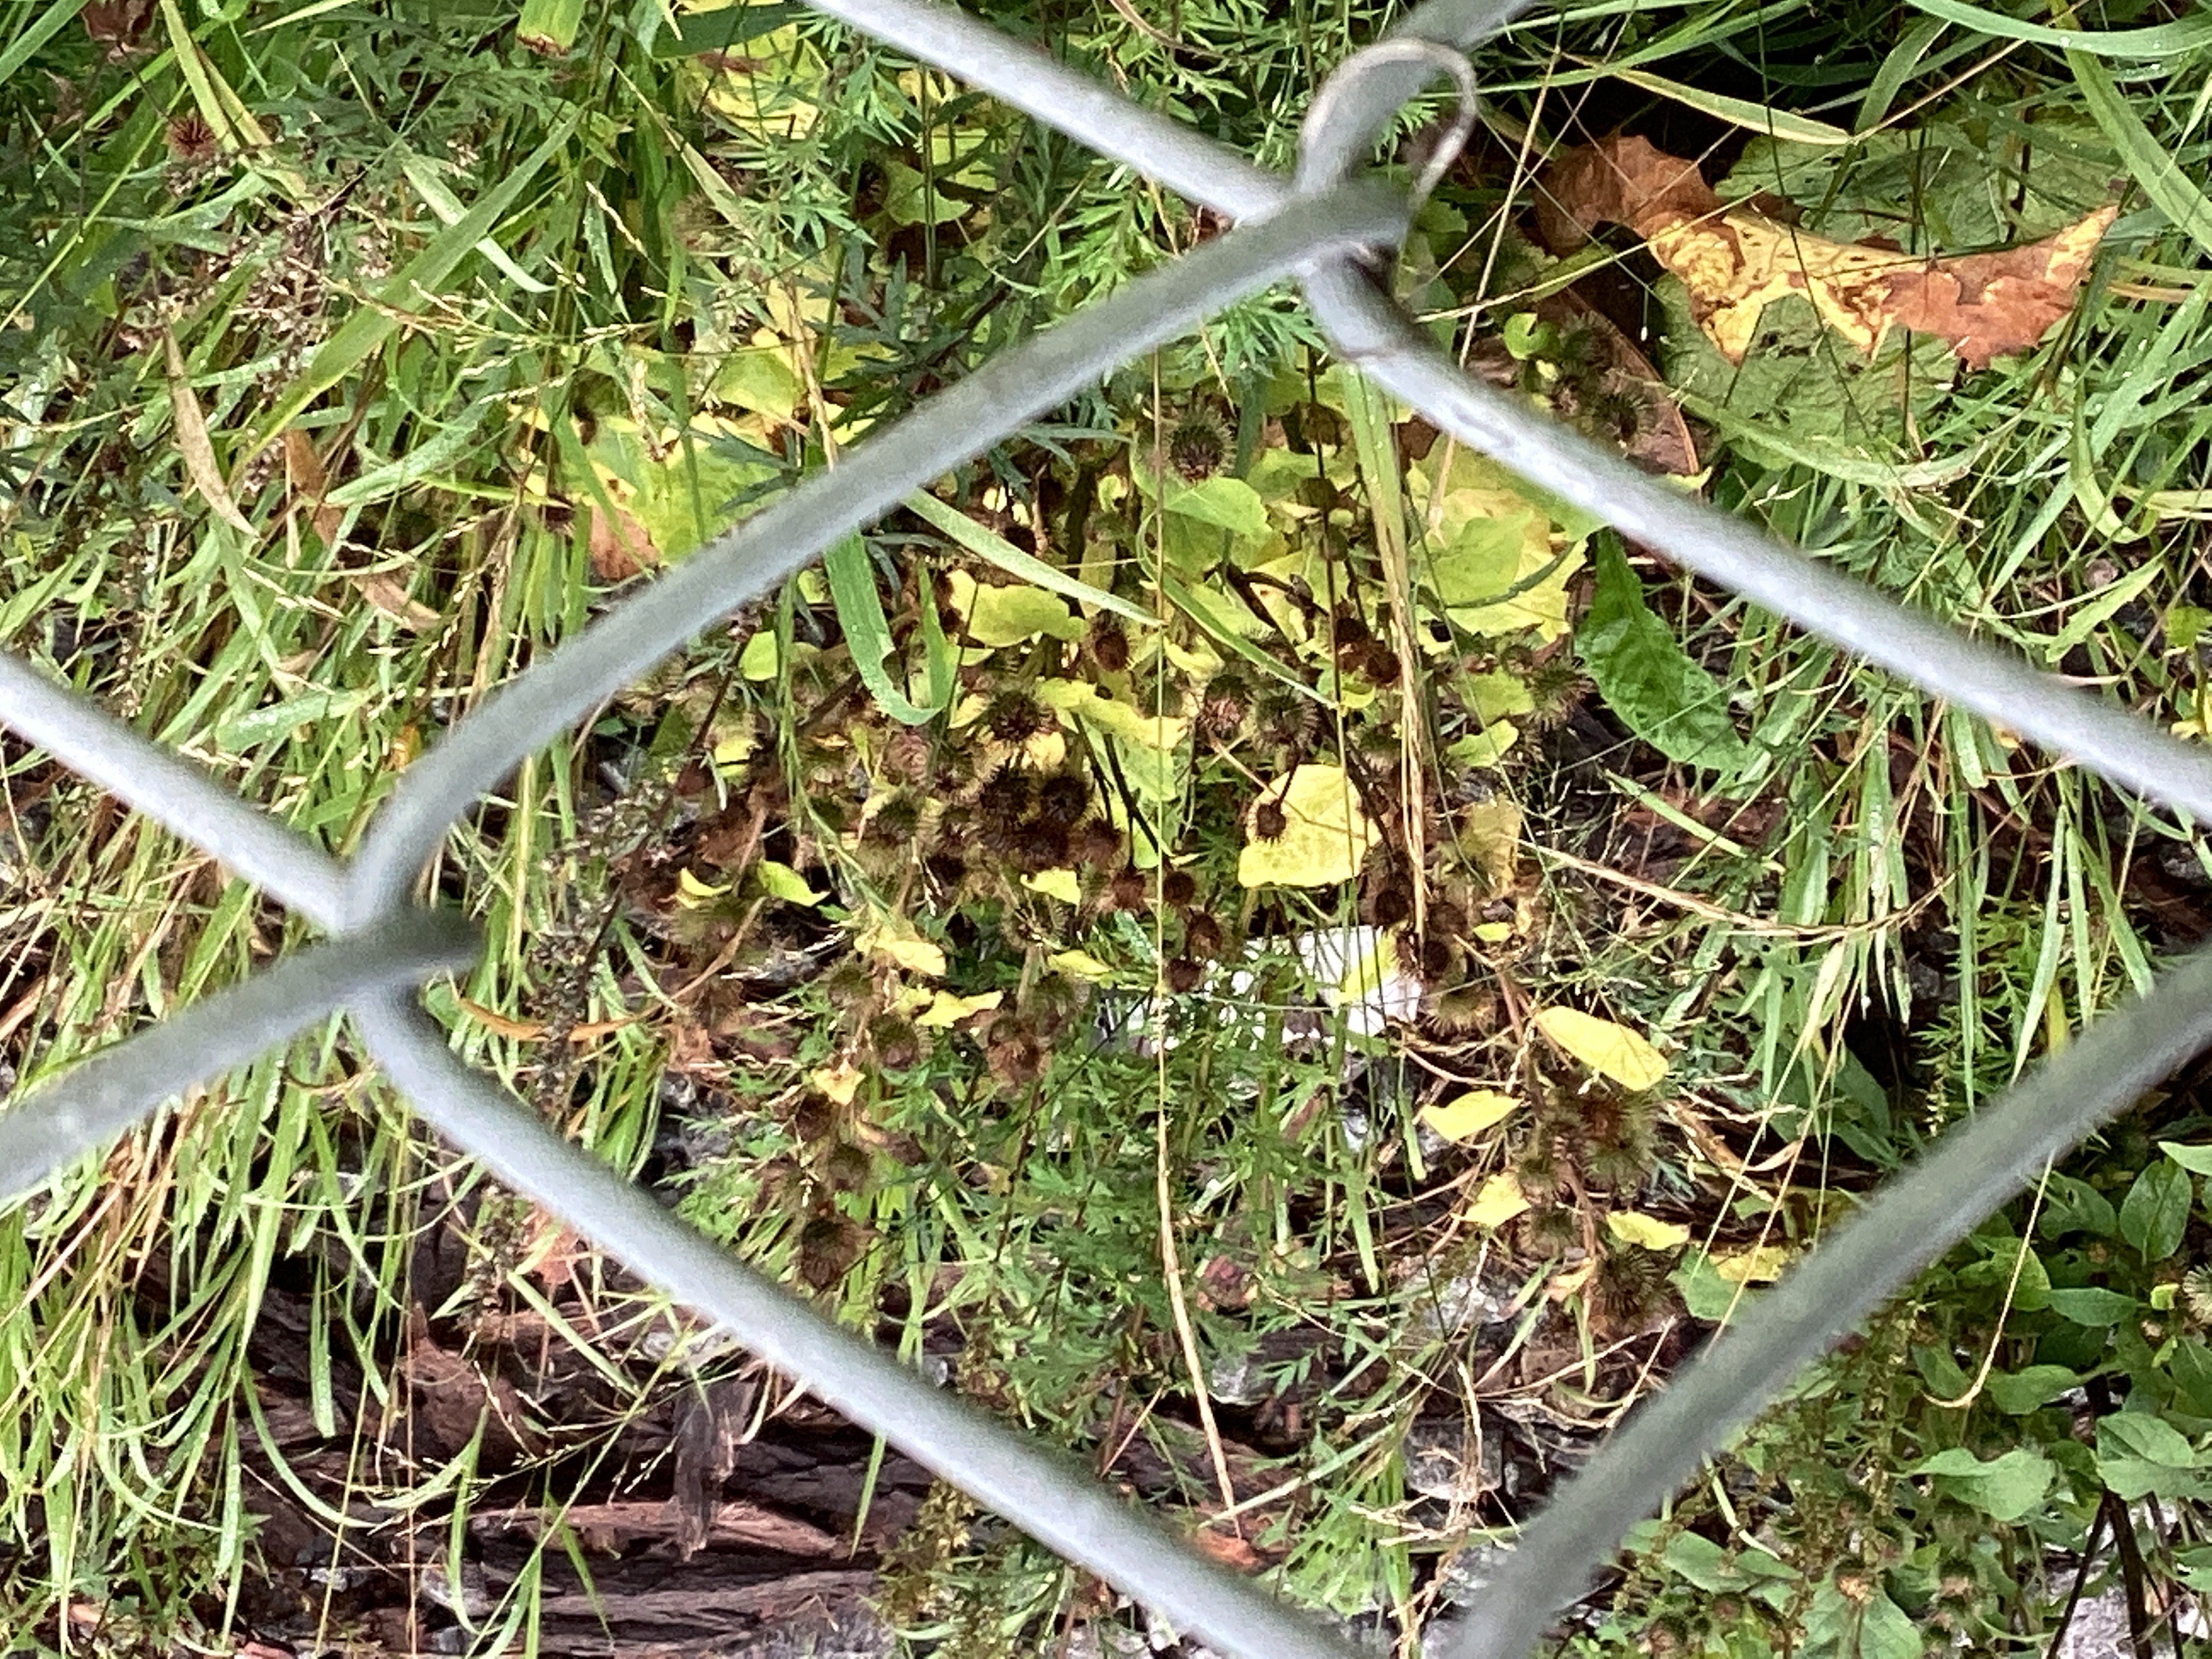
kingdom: Plantae
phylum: Tracheophyta
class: Magnoliopsida
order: Asterales
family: Asteraceae
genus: Arctium
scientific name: Arctium tomentosum
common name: ullborre
